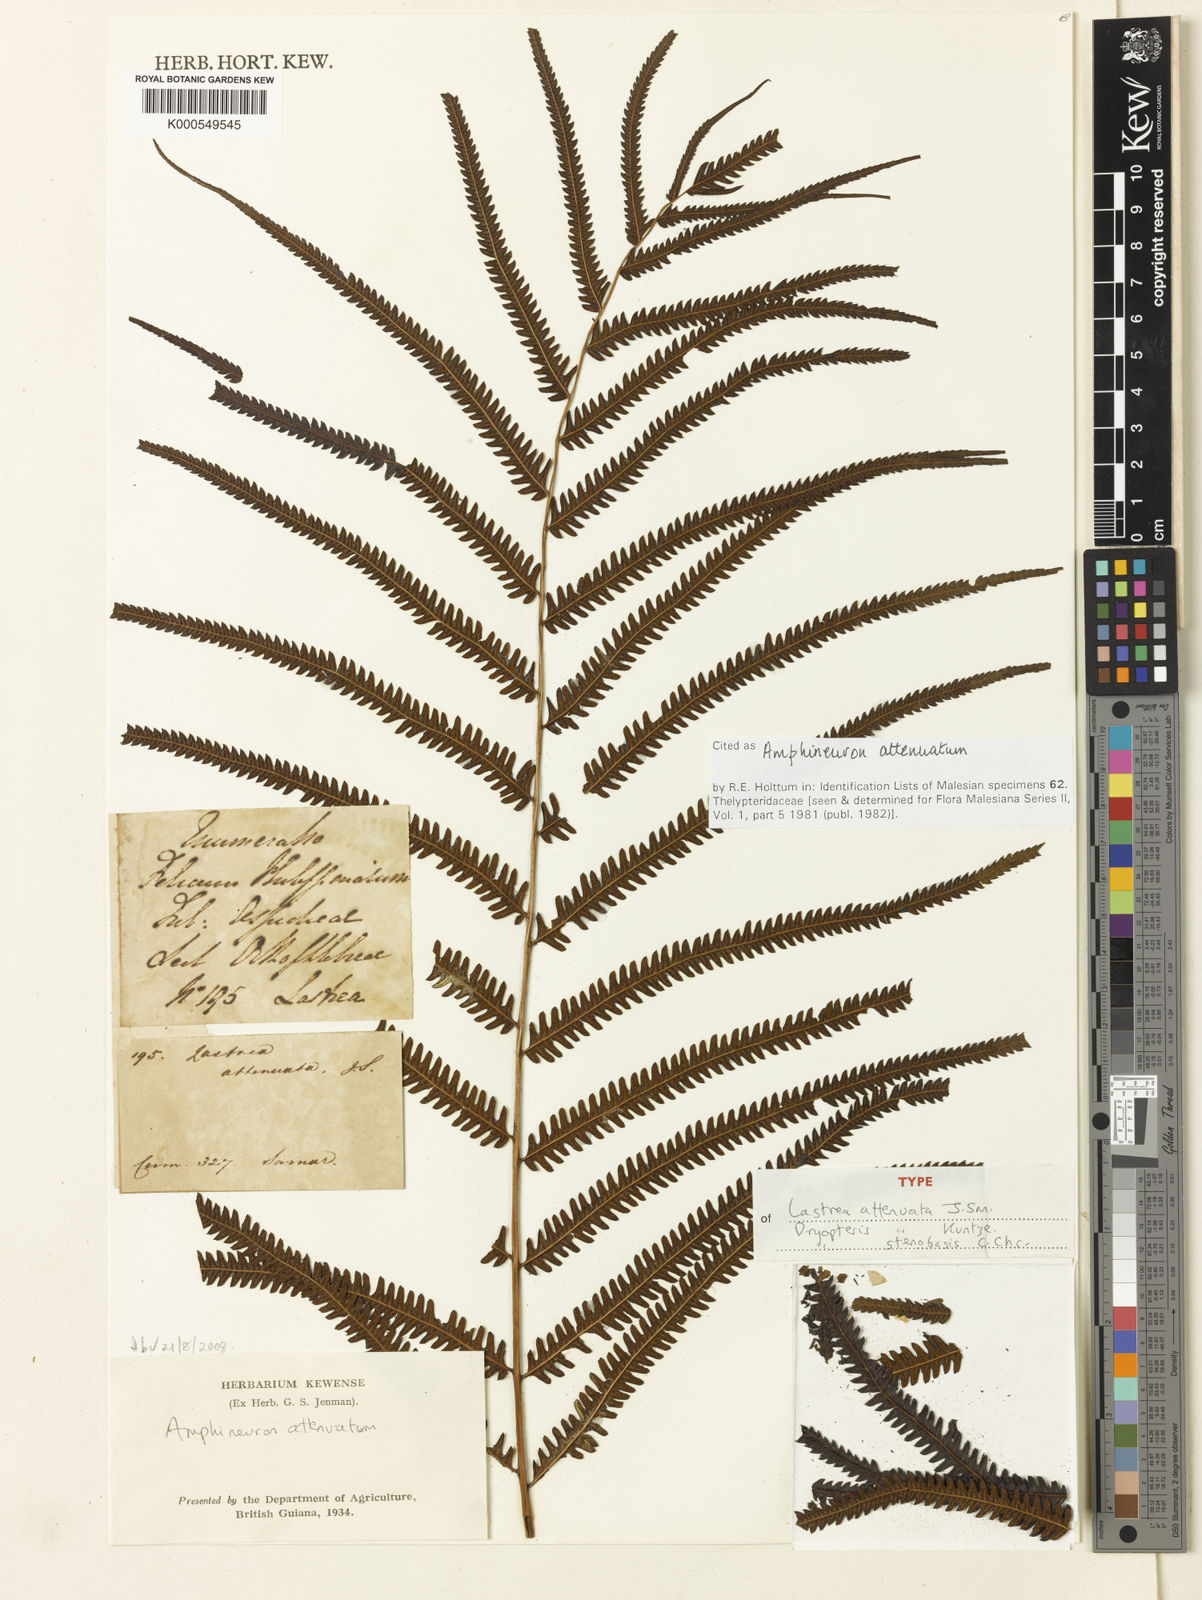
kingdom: Plantae
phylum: Tracheophyta
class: Polypodiopsida
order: Polypodiales
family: Thelypteridaceae
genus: Mesopteris
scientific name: Mesopteris attenuata
